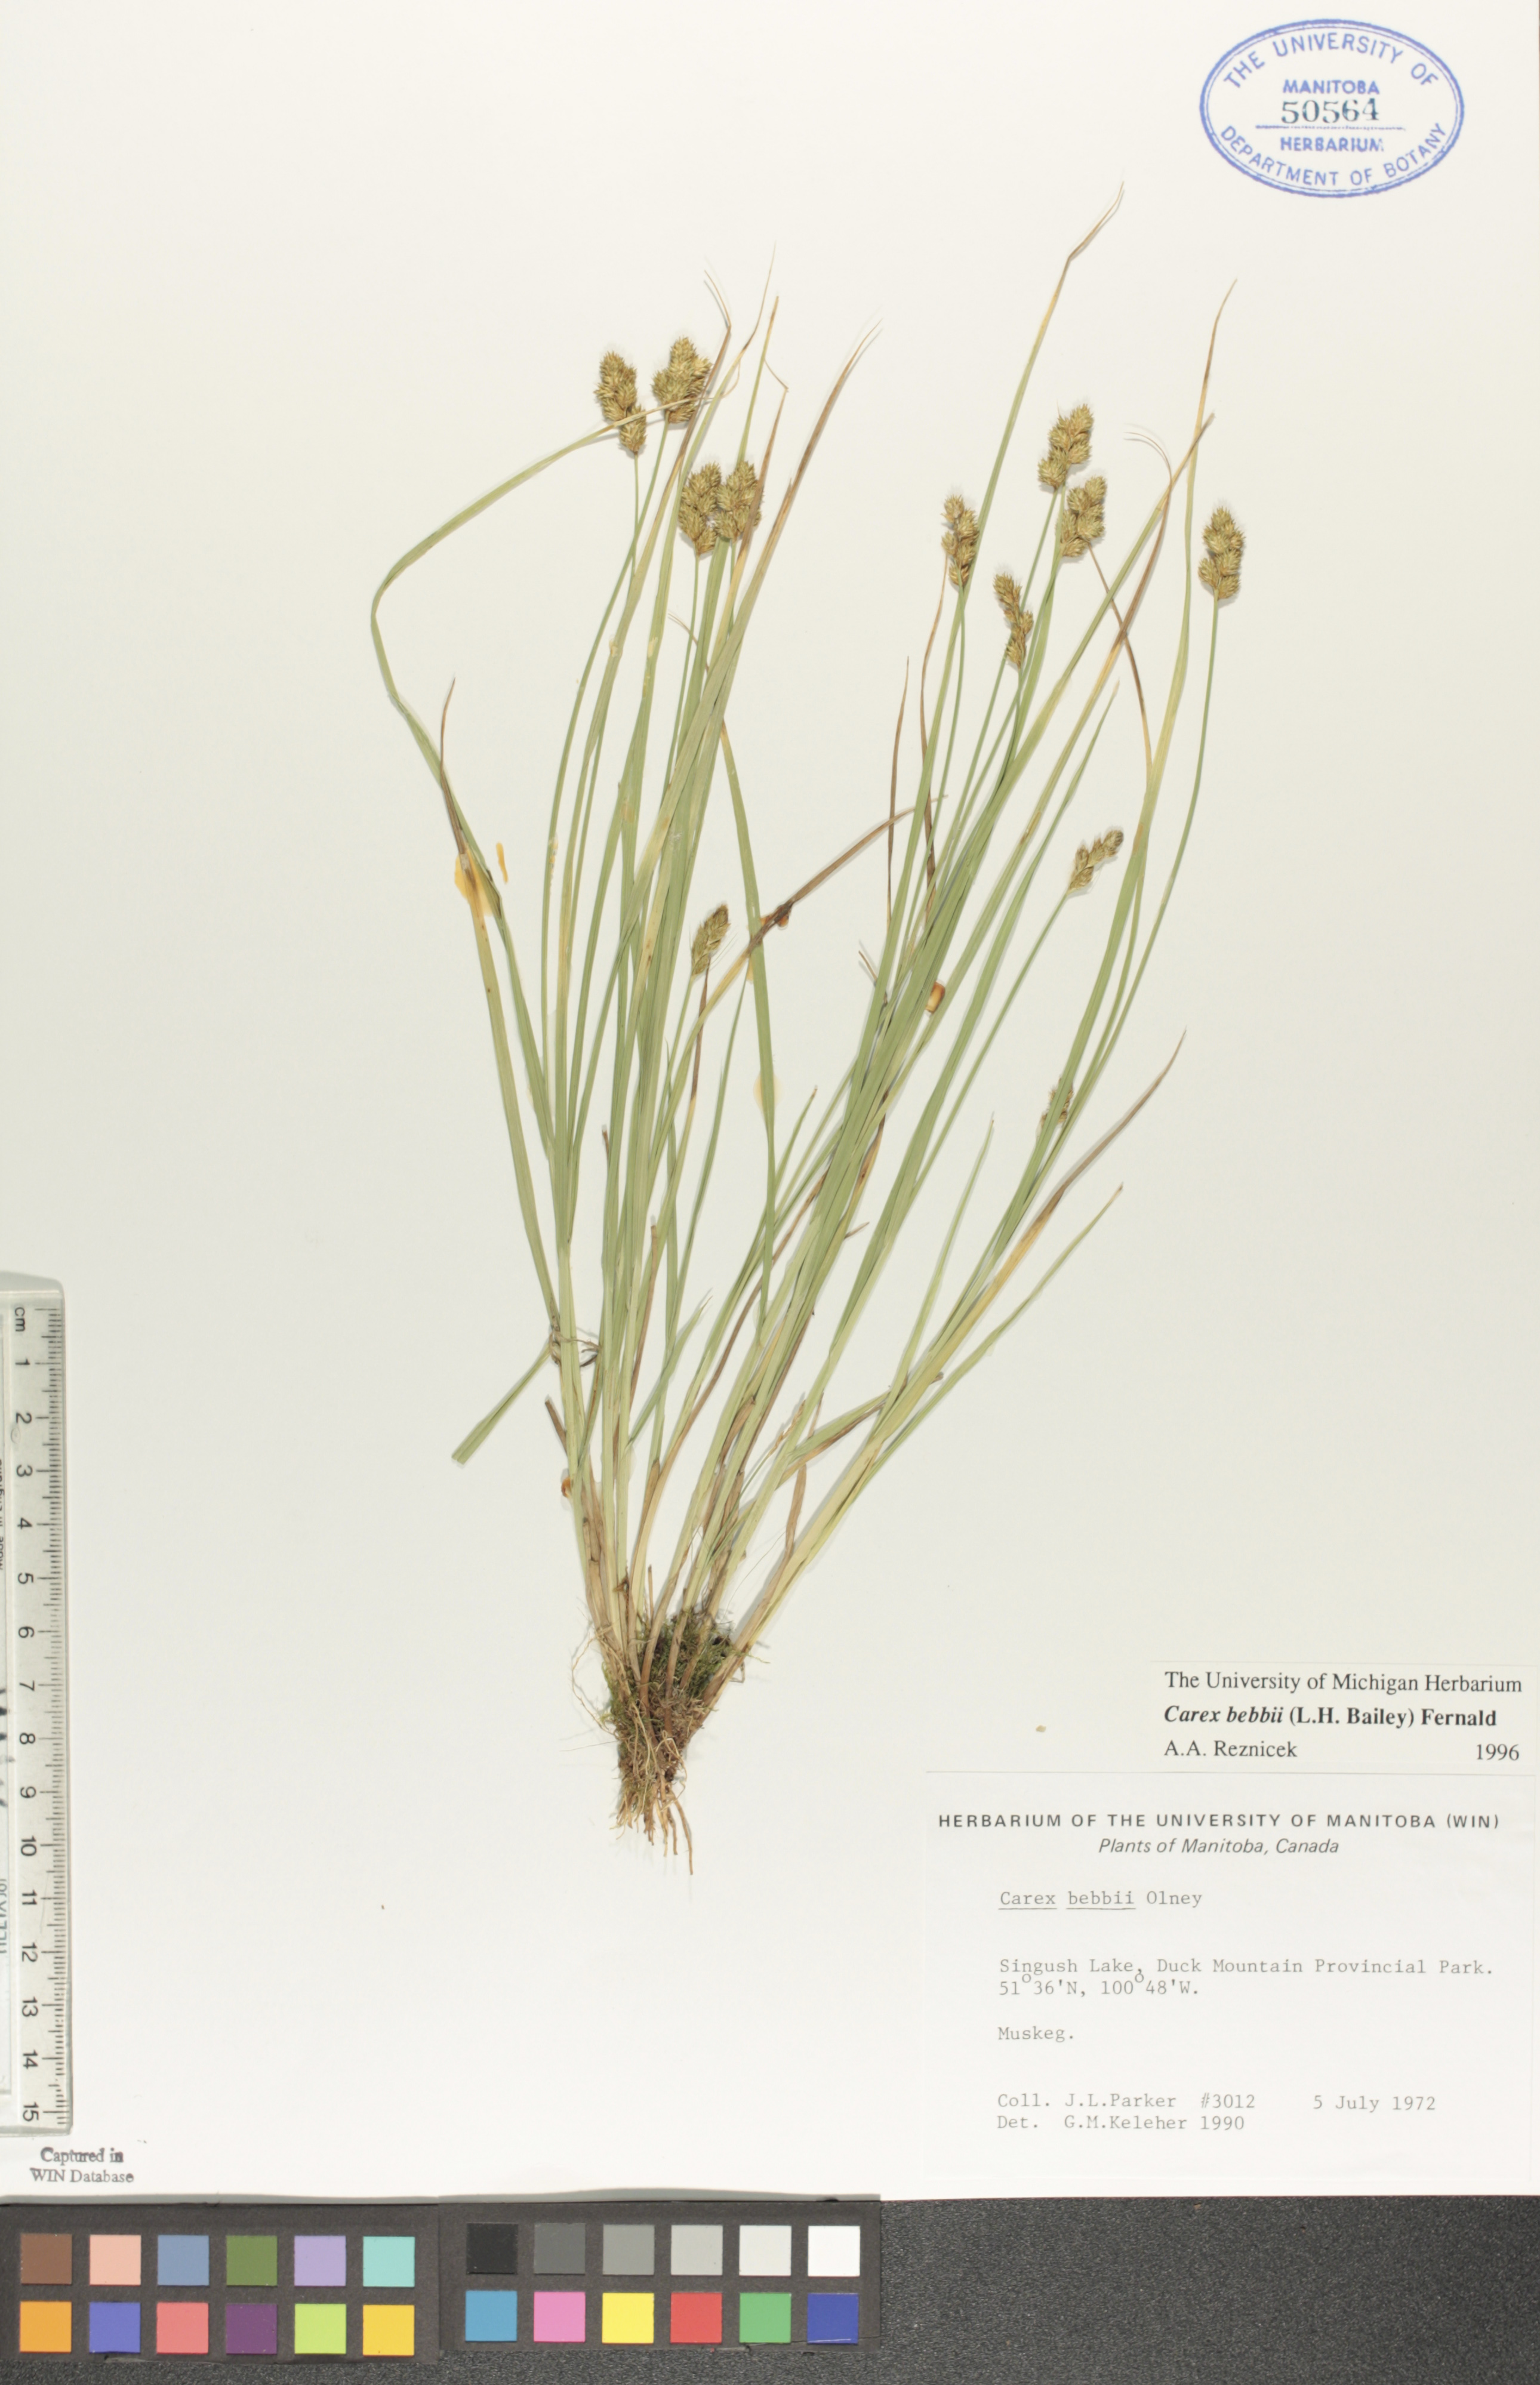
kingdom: Plantae
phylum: Tracheophyta
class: Liliopsida
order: Poales
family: Cyperaceae
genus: Carex
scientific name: Carex bebbii
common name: Bebb's sedge
